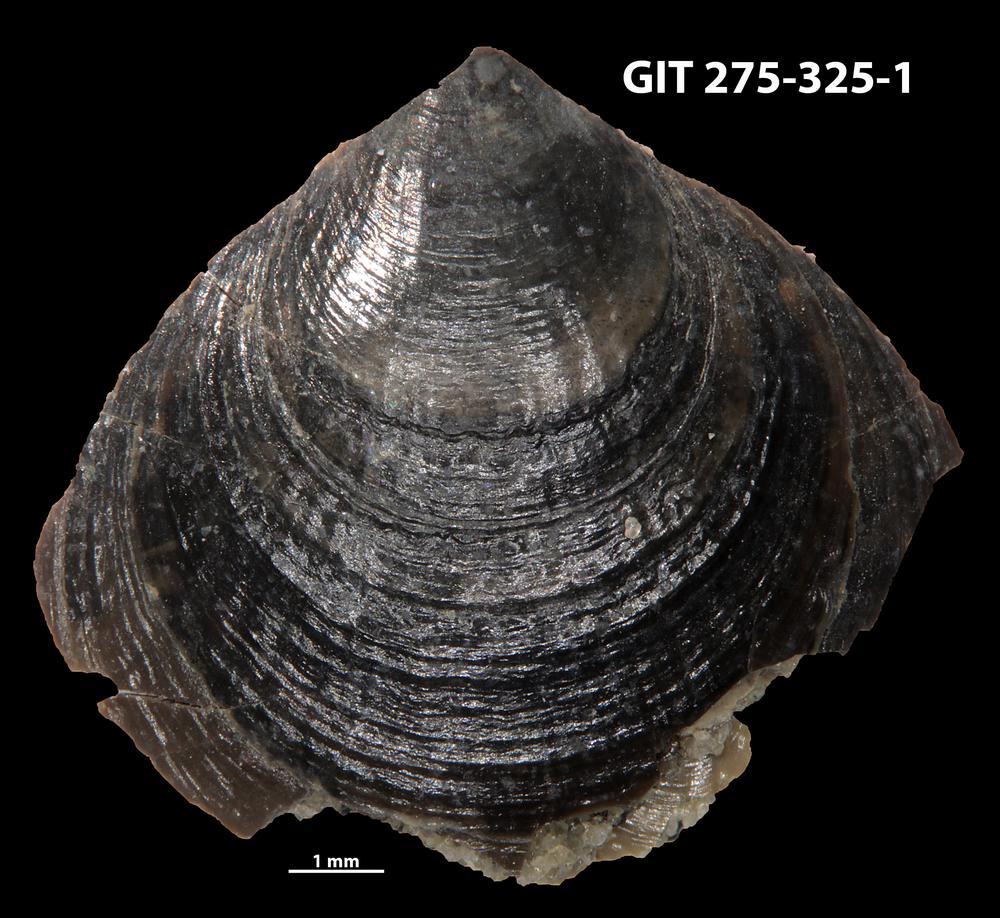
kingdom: Animalia
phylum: Brachiopoda
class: Lingulata
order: Lingulida
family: Obolidae
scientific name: Obolidae
